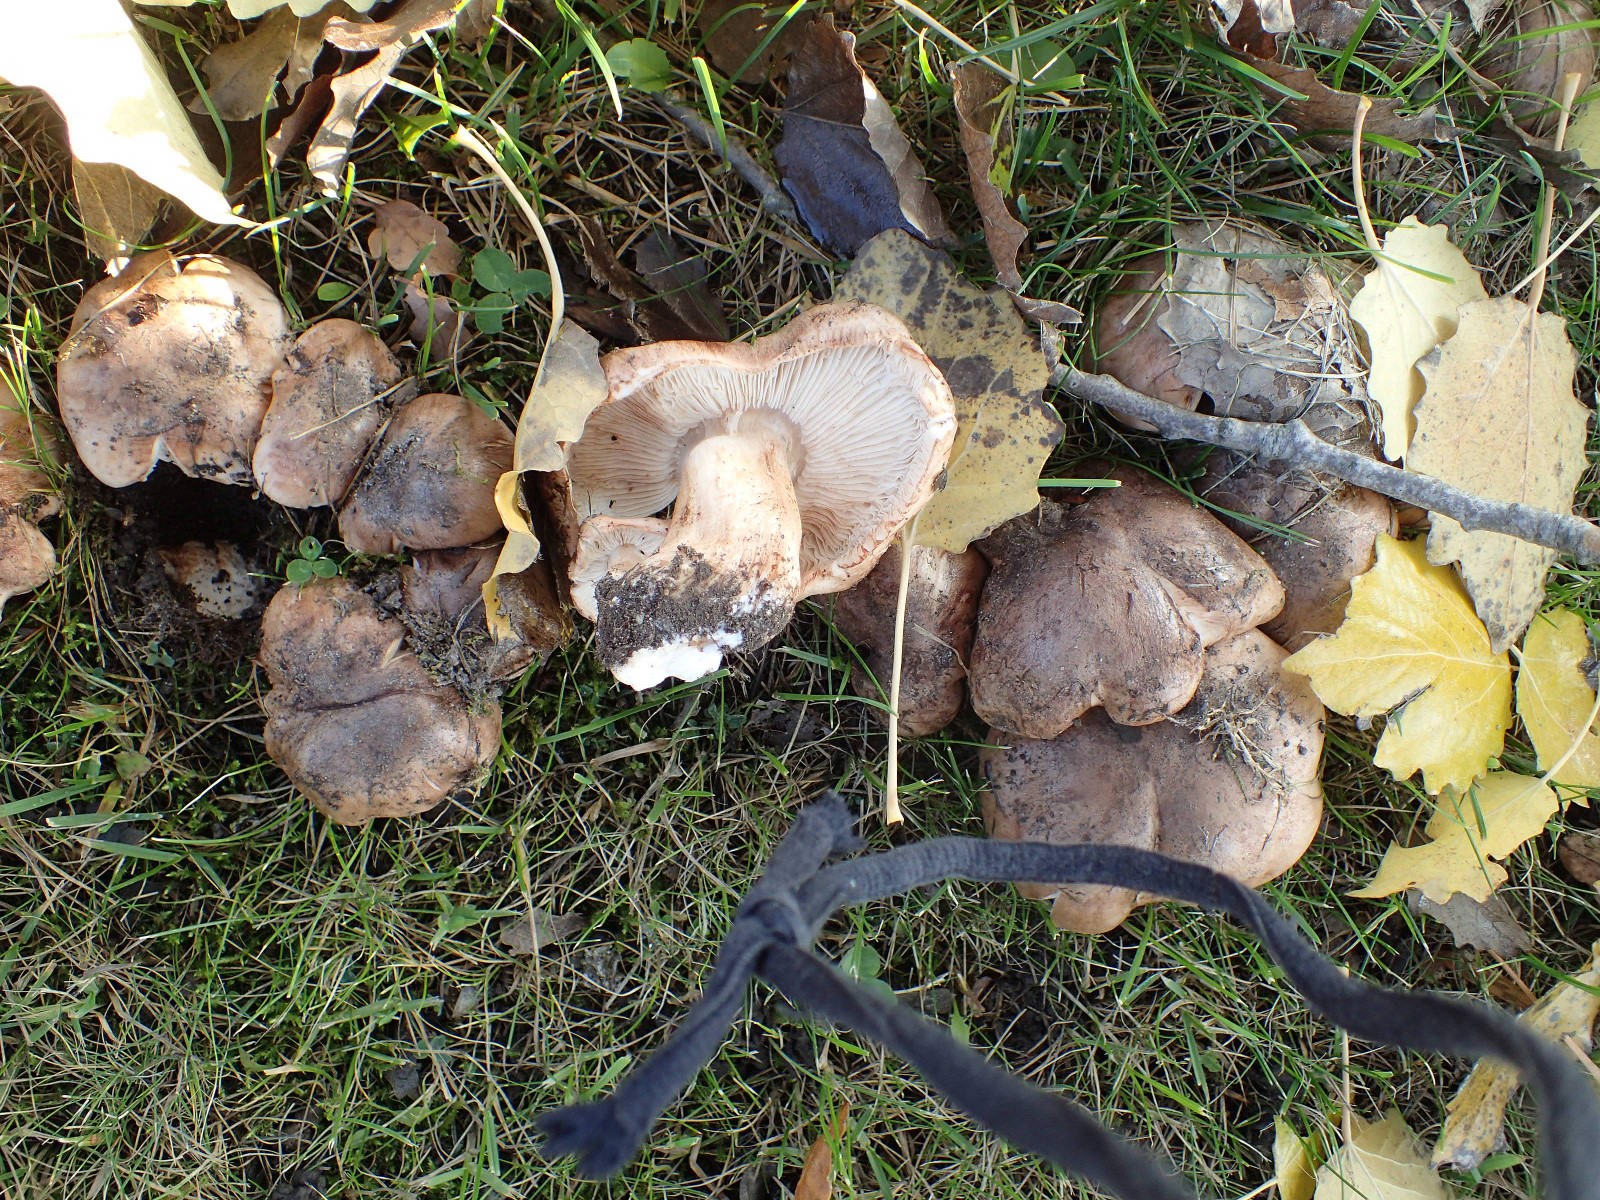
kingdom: Fungi
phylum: Basidiomycota
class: Agaricomycetes
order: Agaricales
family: Tricholomataceae
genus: Tricholoma
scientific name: Tricholoma populinum
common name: poppel-ridderhat
